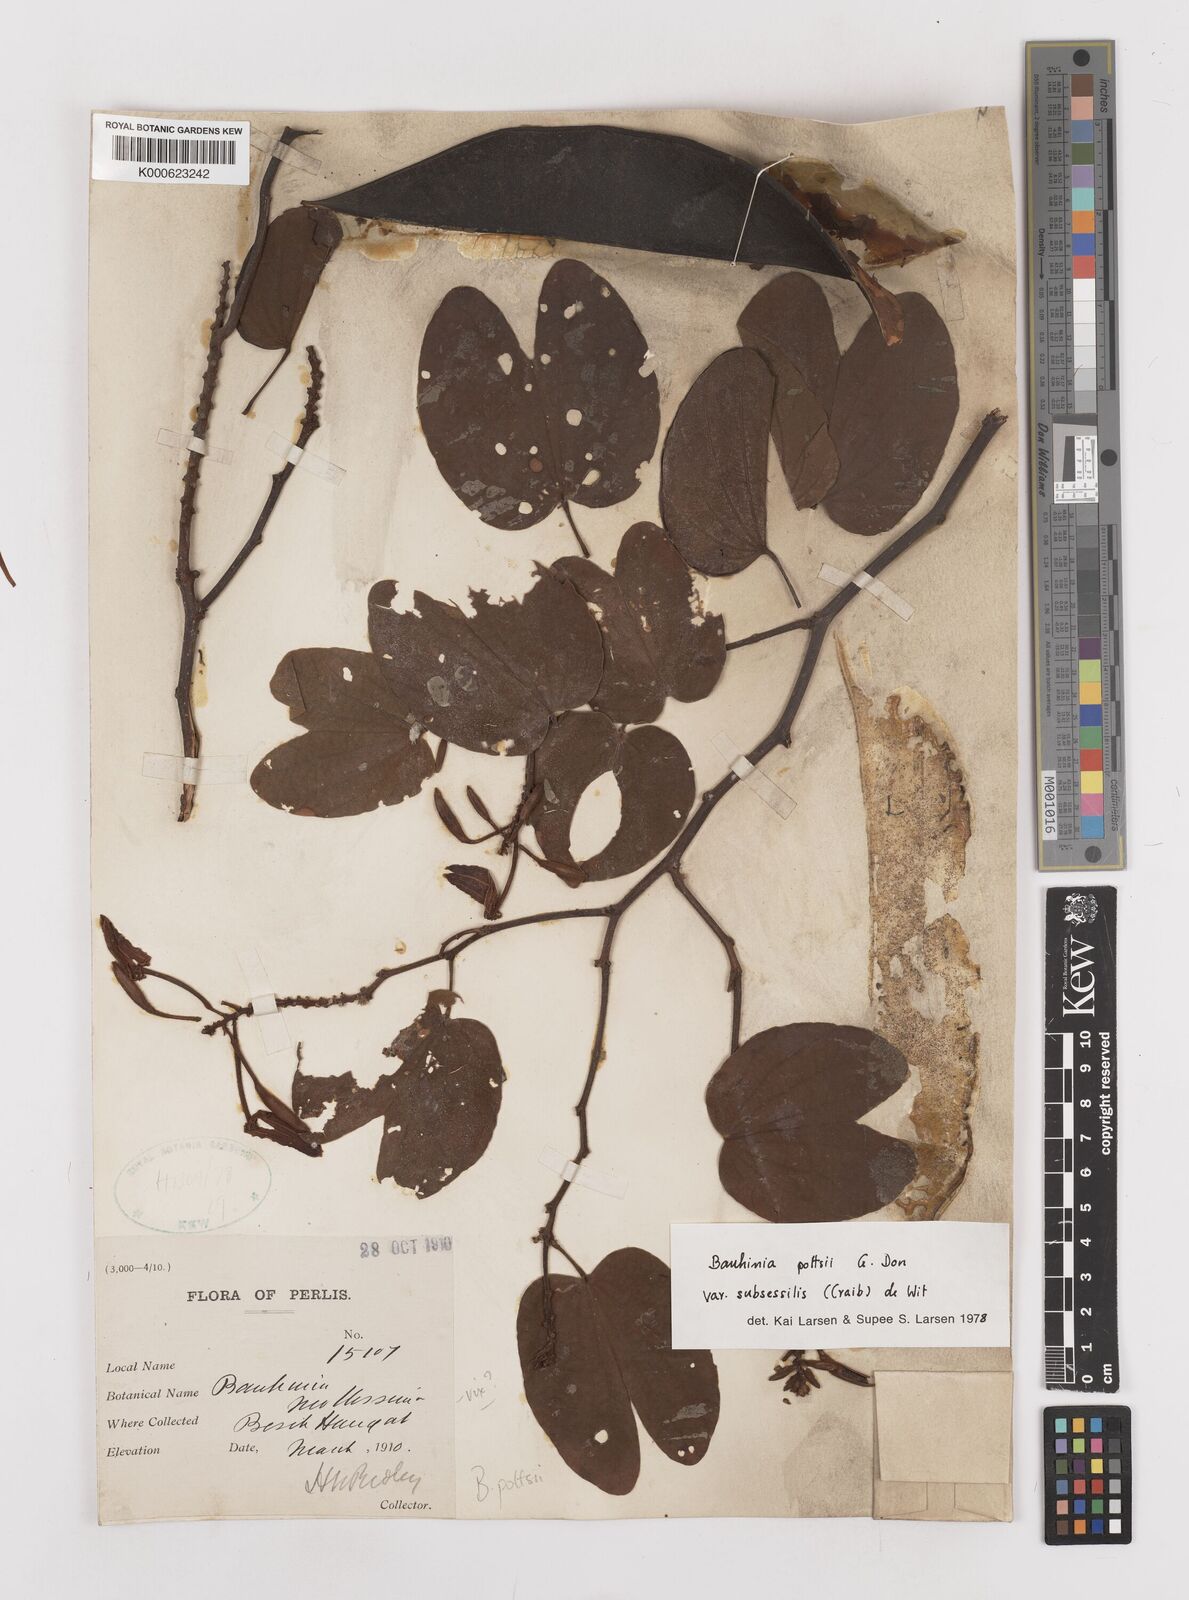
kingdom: Plantae
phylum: Tracheophyta
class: Magnoliopsida
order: Fabales
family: Fabaceae
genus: Bauhinia
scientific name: Bauhinia pottsii
